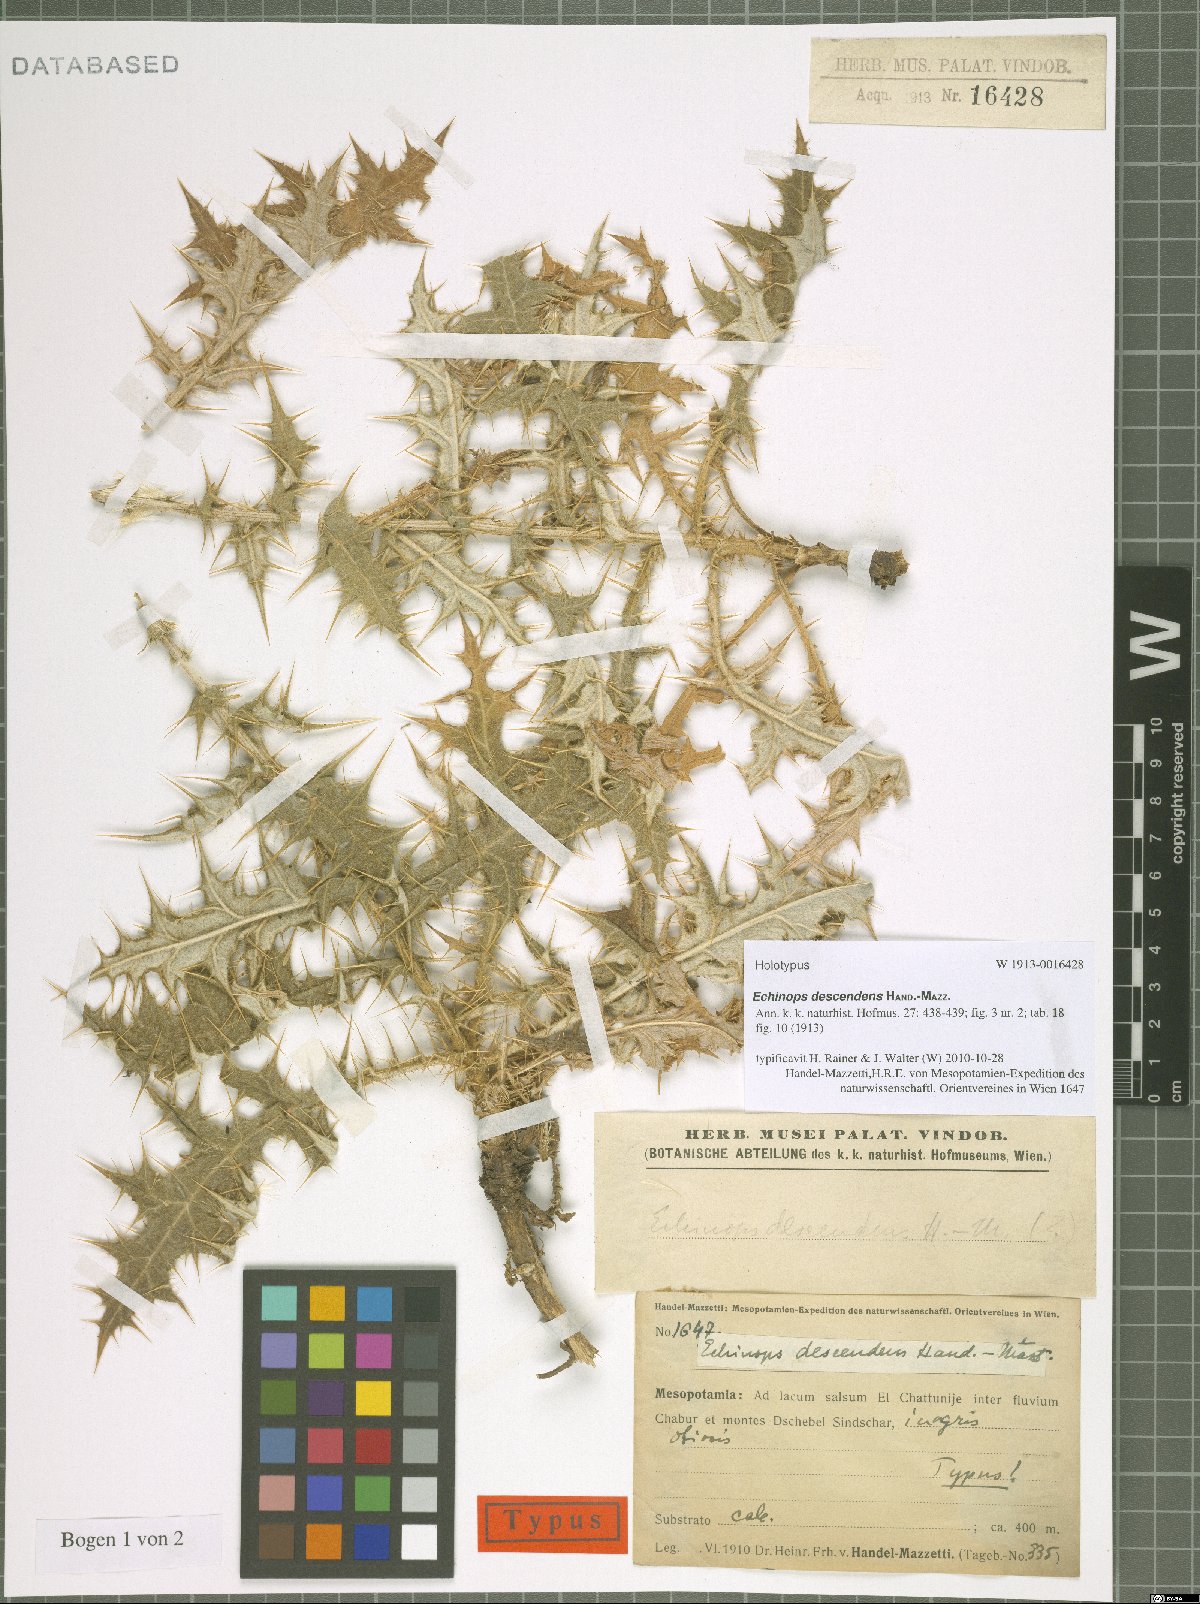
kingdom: Plantae
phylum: Tracheophyta
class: Magnoliopsida
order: Asterales
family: Asteraceae
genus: Echinops
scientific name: Echinops descendens
